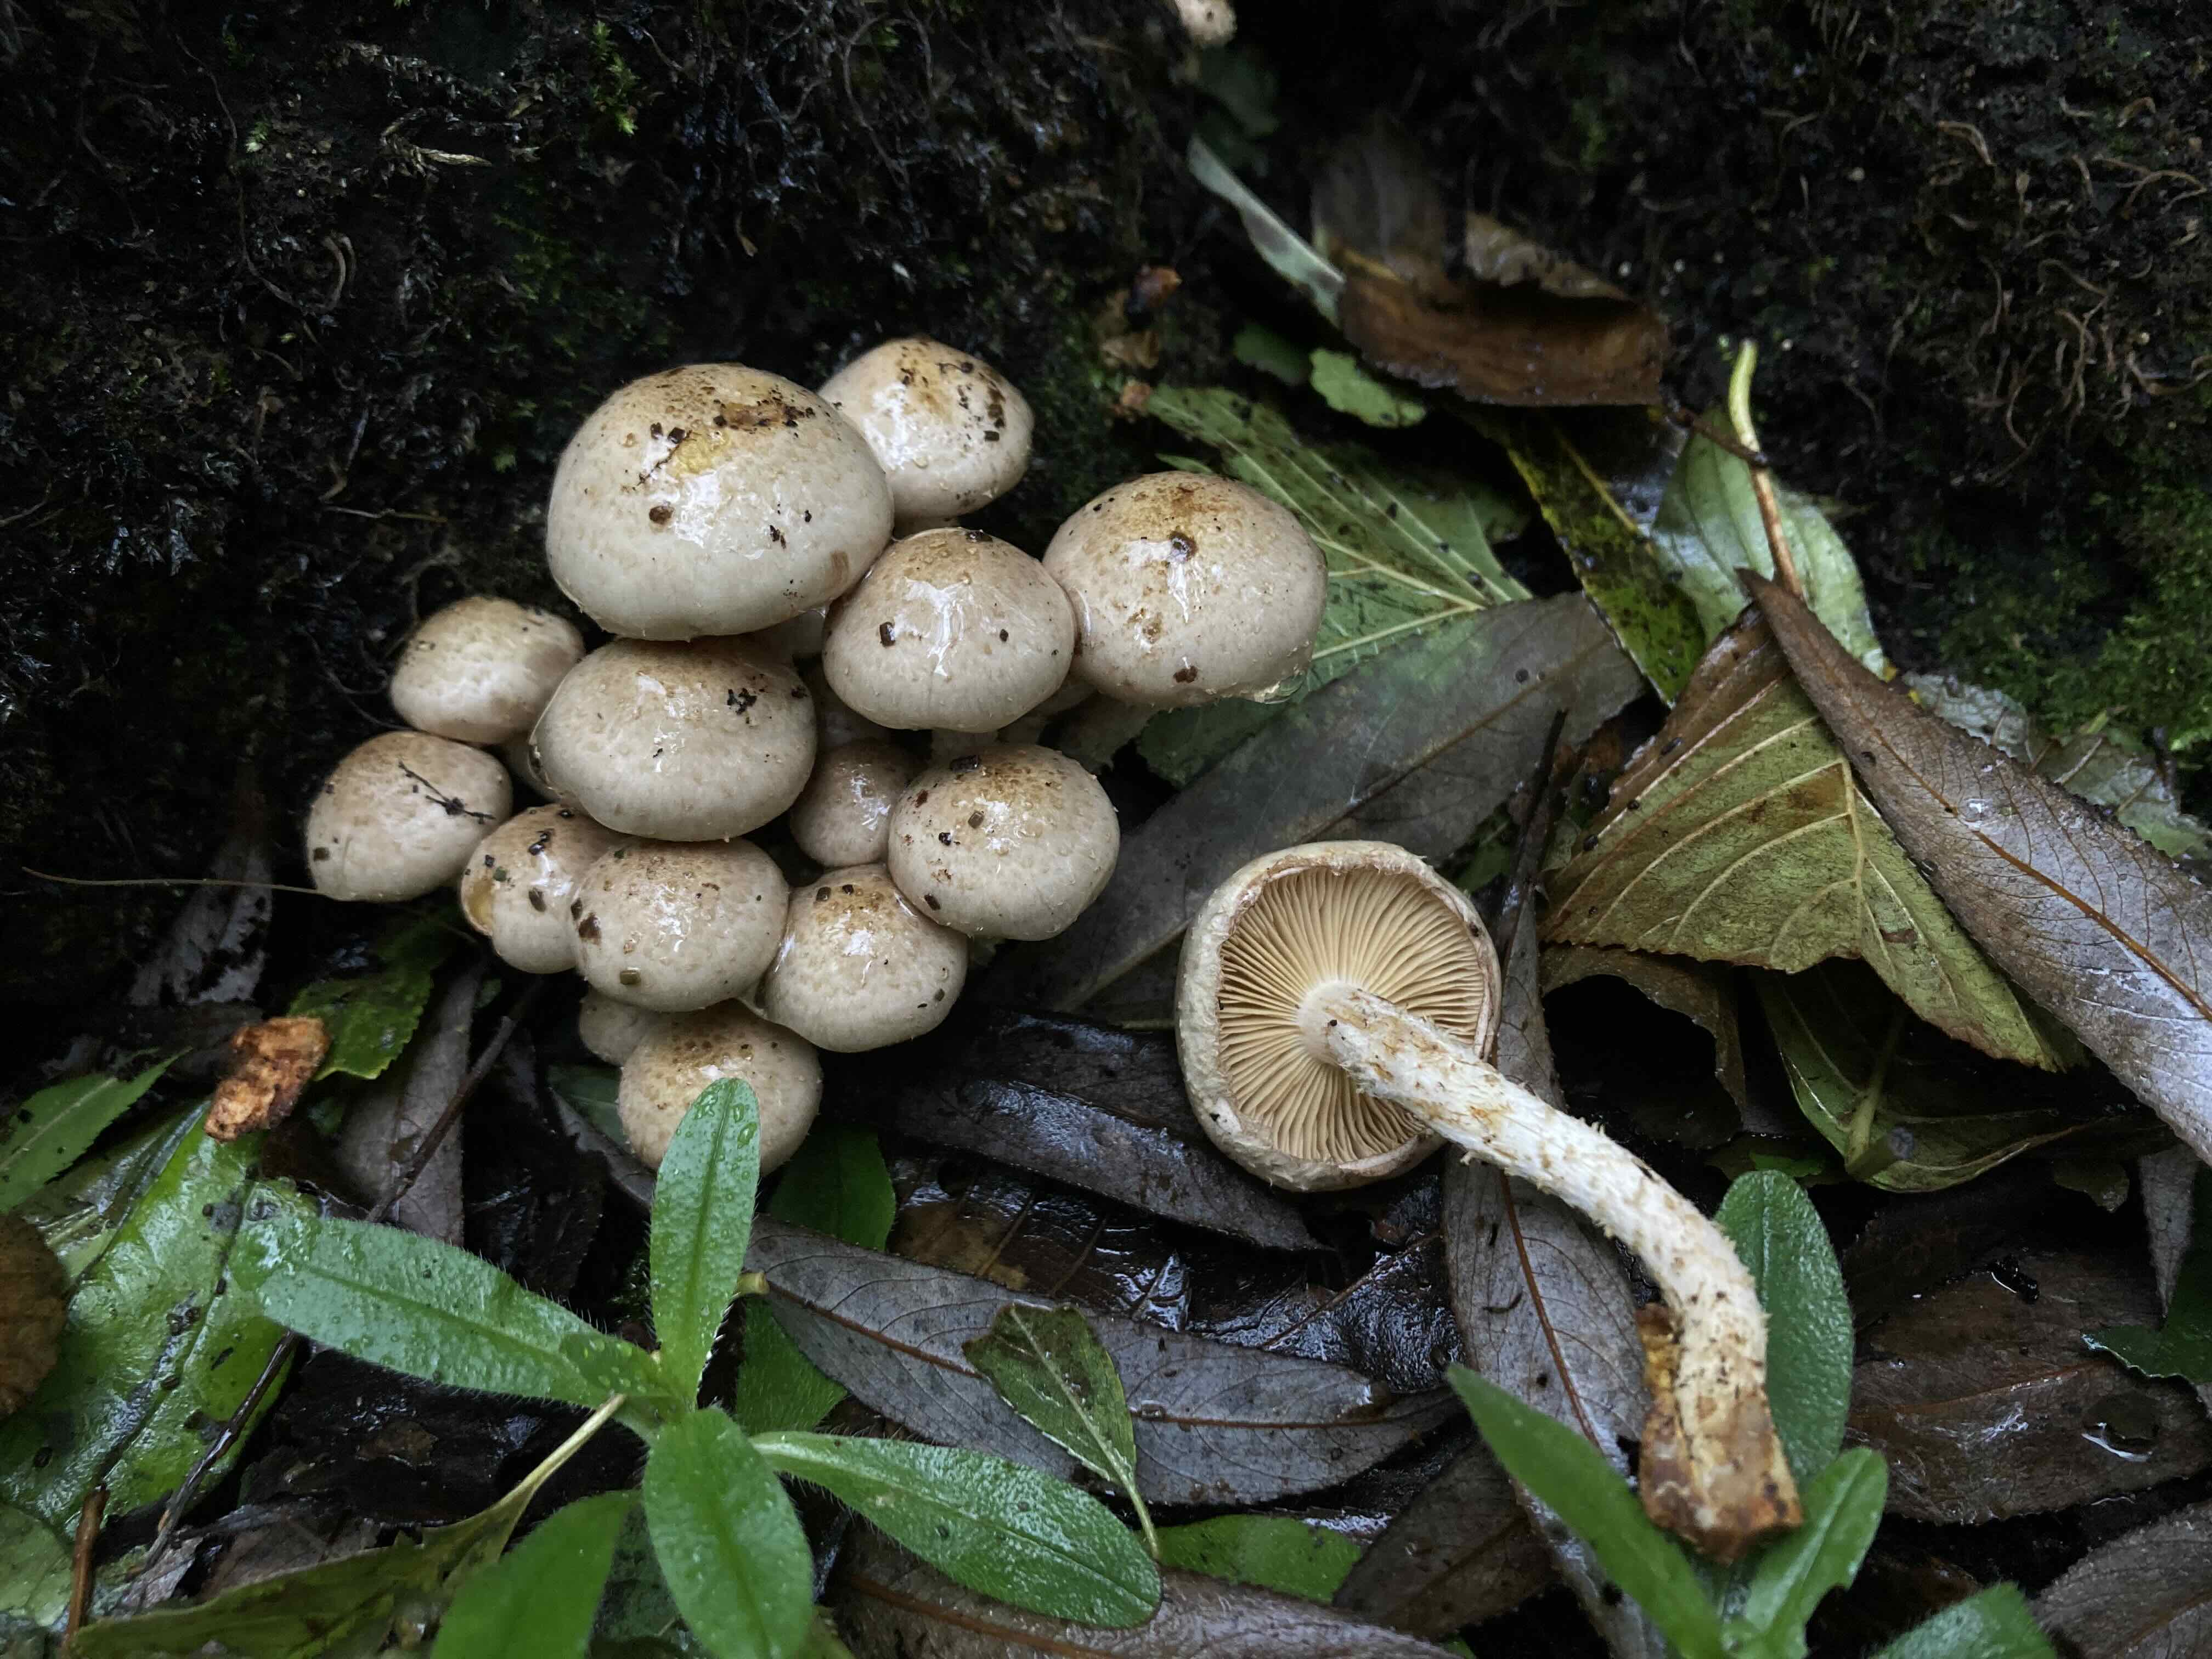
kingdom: Fungi
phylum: Basidiomycota
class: Agaricomycetes
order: Agaricales
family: Strophariaceae
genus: Pholiota
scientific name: Pholiota gummosa
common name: grøngul skælhat
